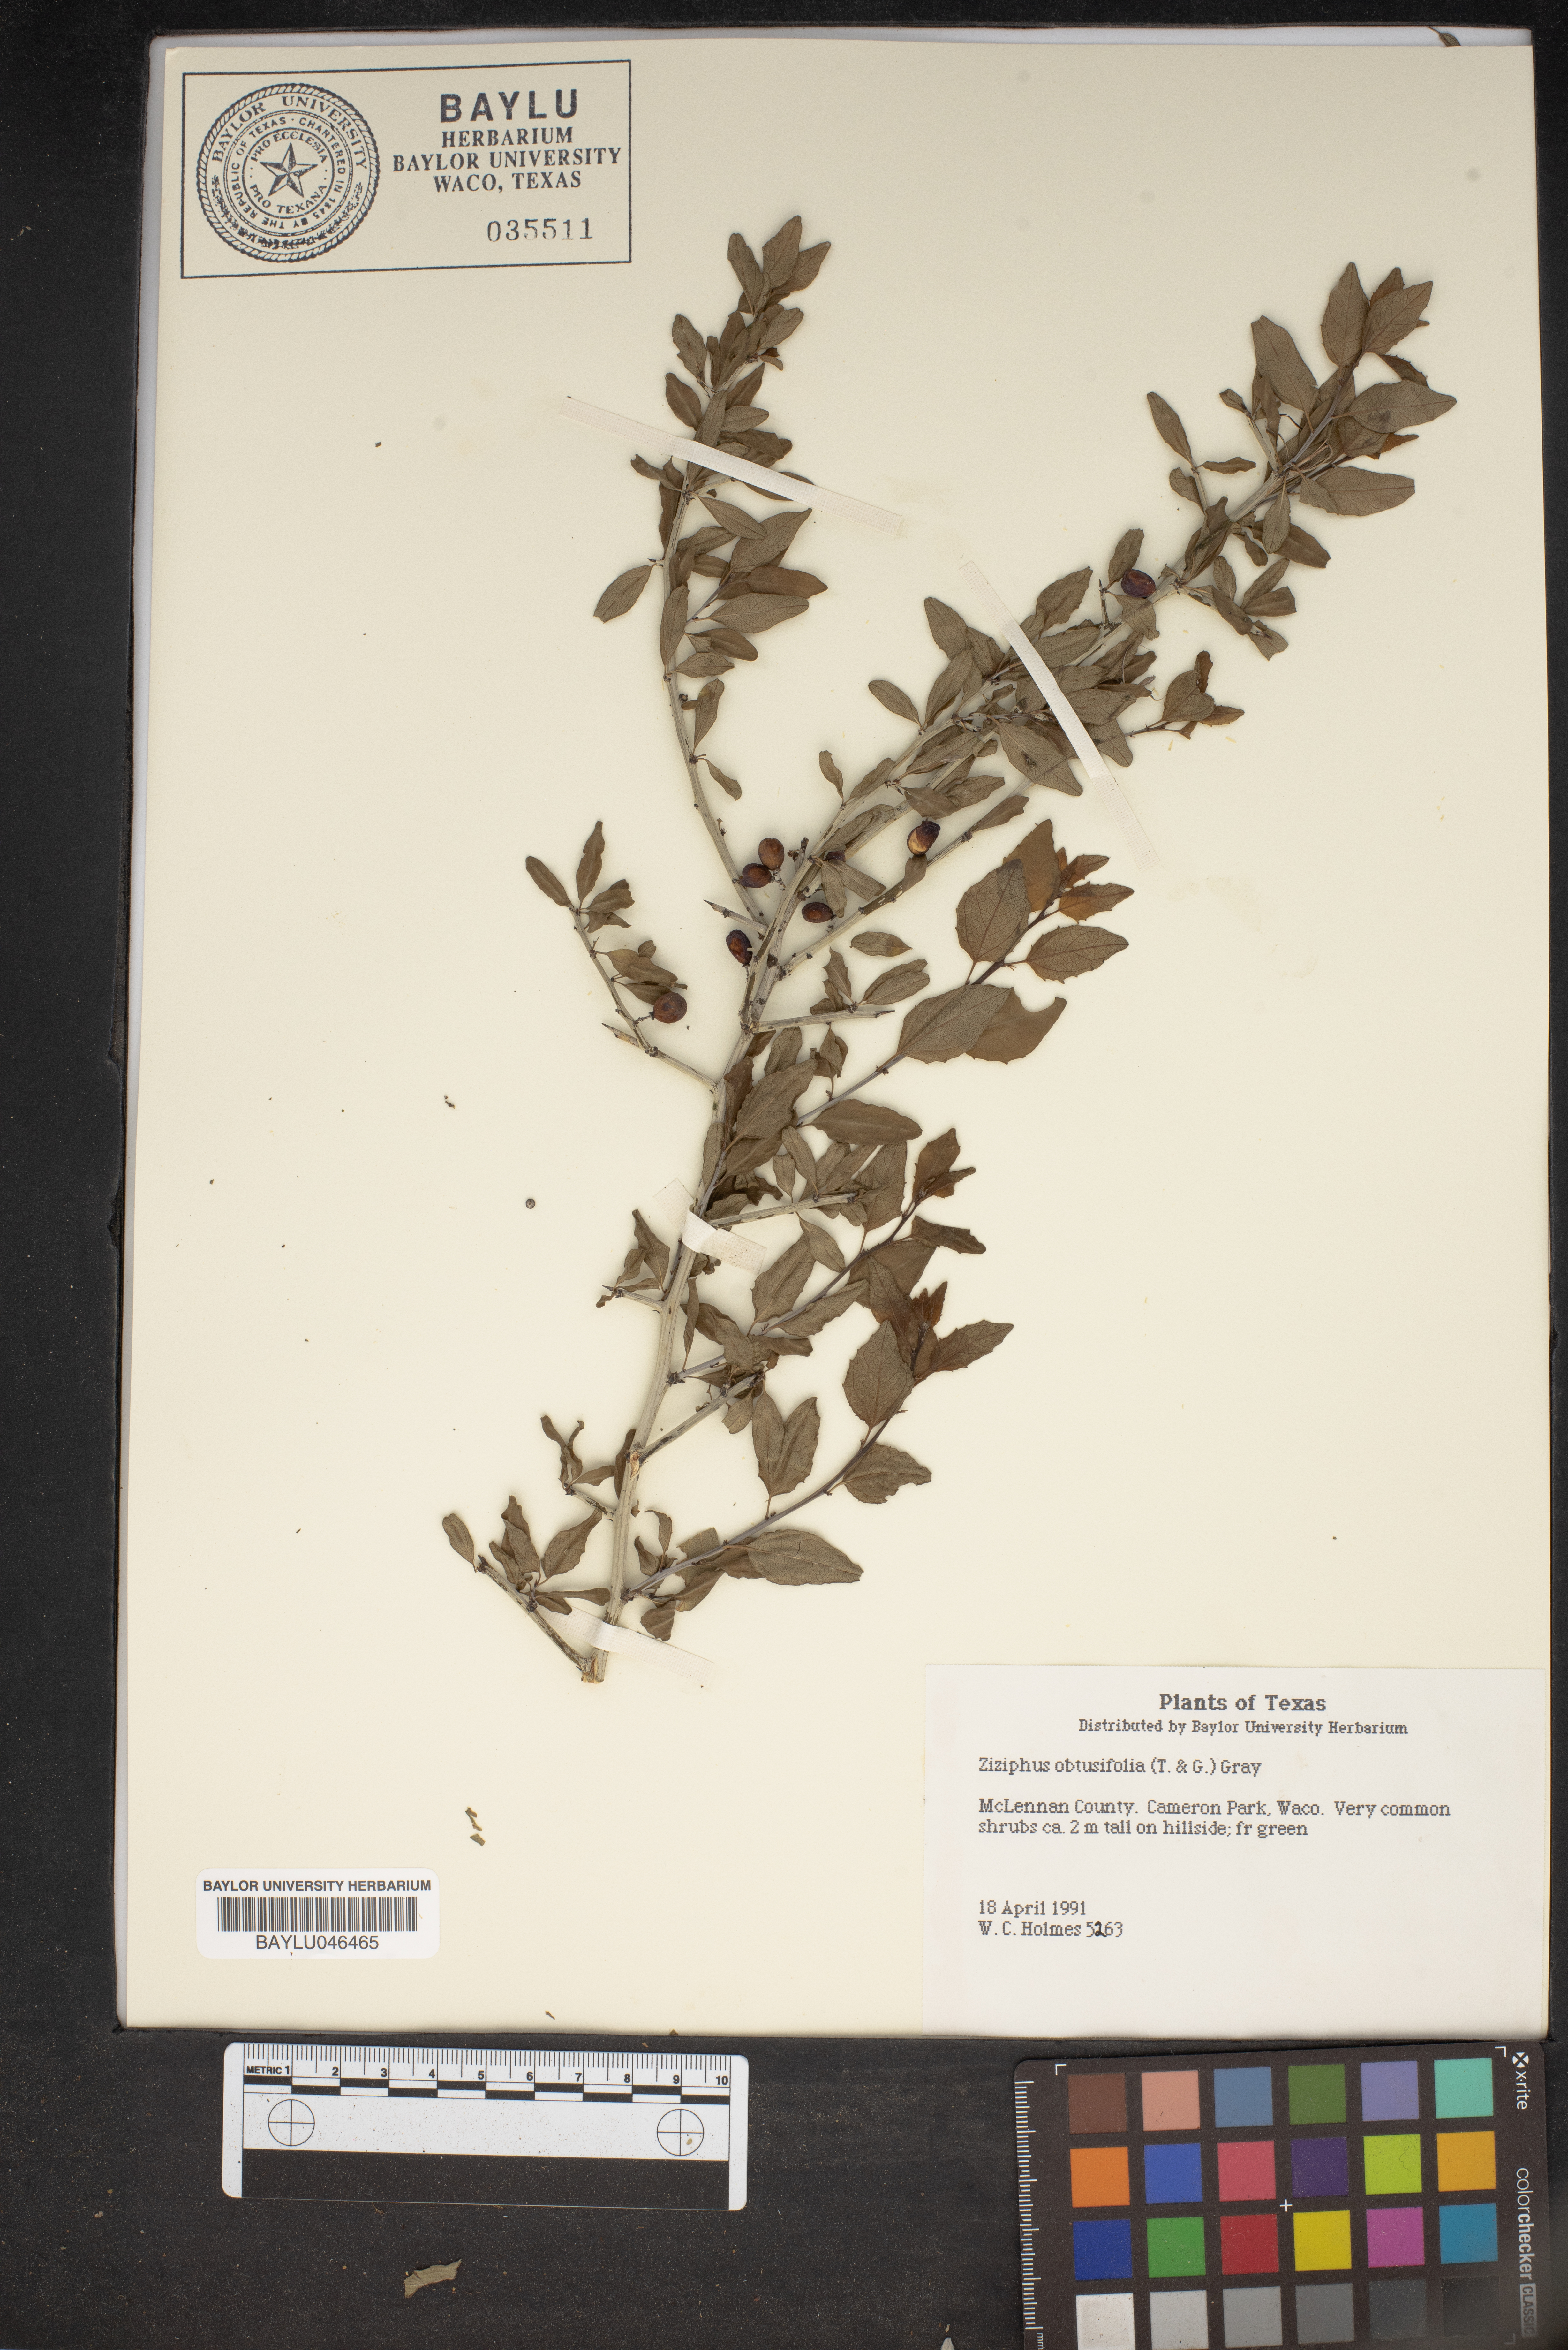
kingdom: Plantae
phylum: Tracheophyta
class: Magnoliopsida
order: Rosales
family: Rhamnaceae
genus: Sarcomphalus
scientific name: Sarcomphalus obtusifolius
